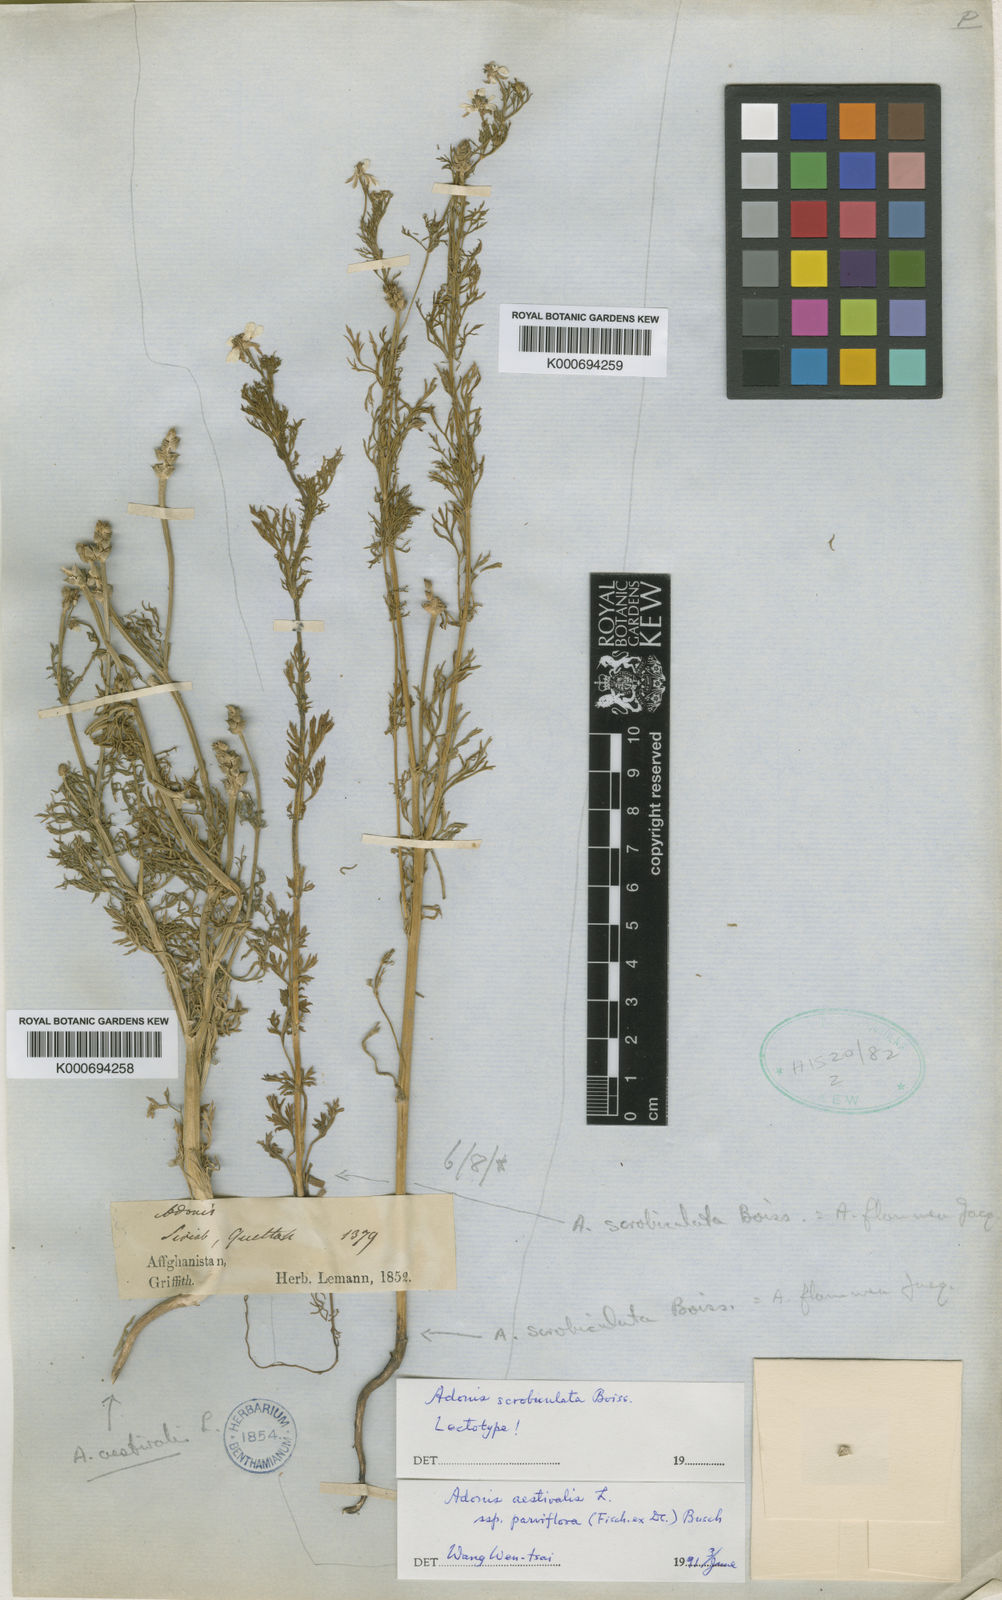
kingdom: Plantae
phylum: Tracheophyta
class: Magnoliopsida
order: Ranunculales
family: Ranunculaceae
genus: Adonis
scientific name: Adonis flammea
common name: Large pheasant's-eye
